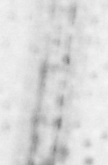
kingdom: Animalia
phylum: Chordata
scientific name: Chordata
